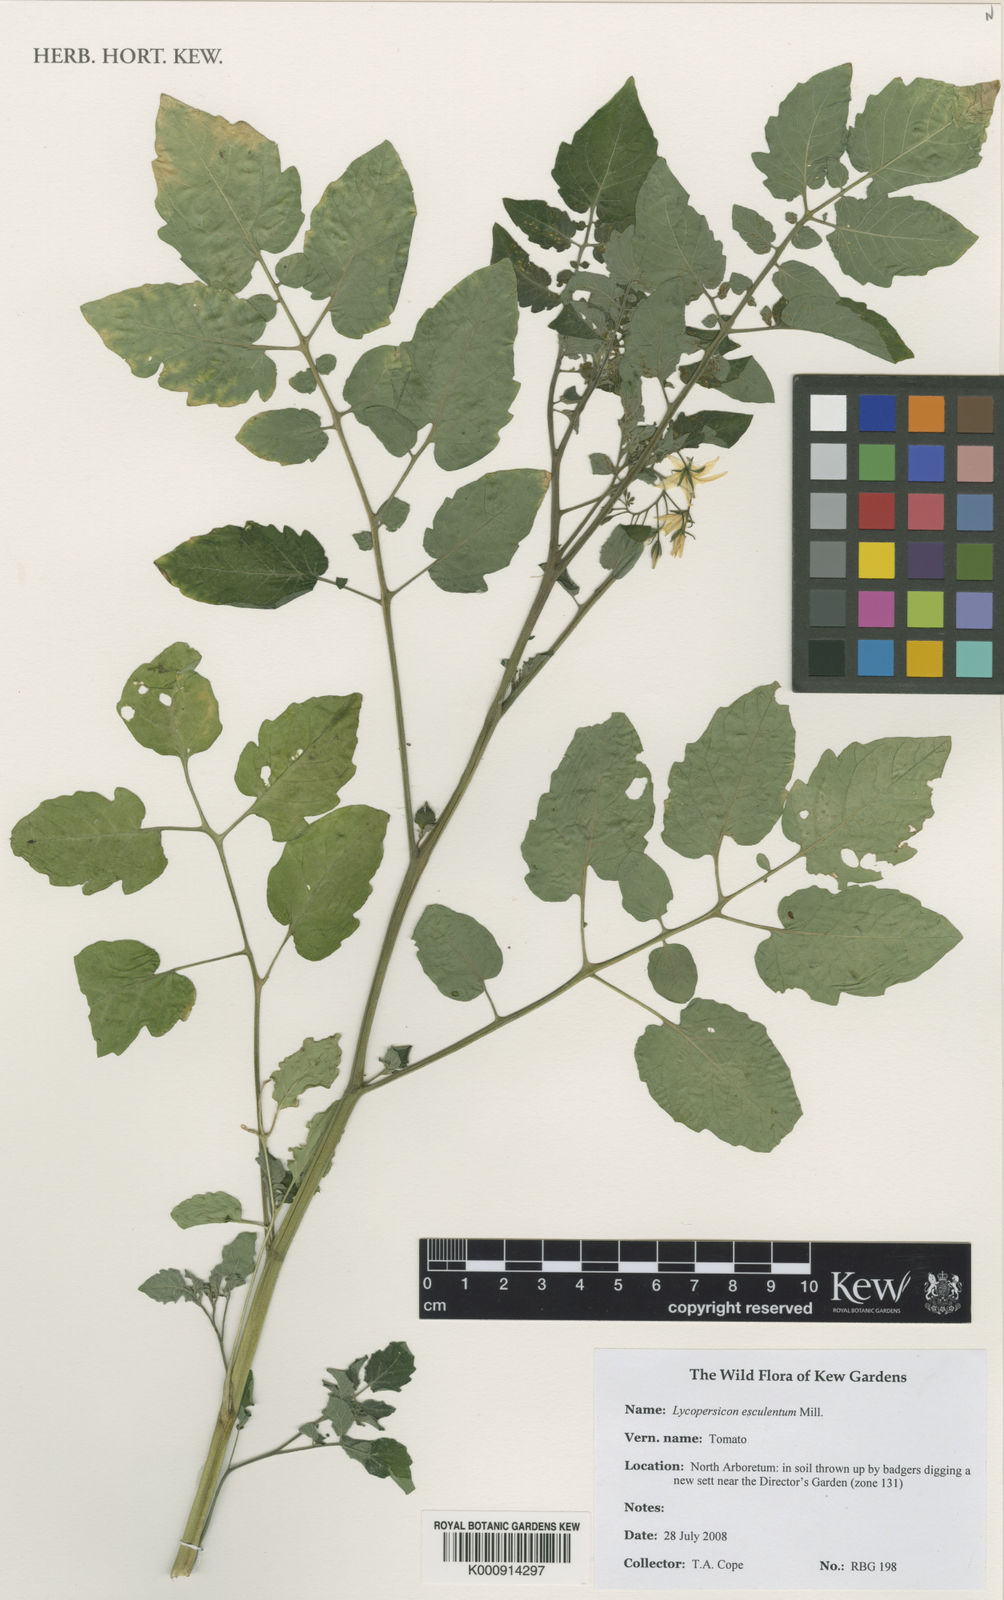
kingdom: Plantae
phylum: Tracheophyta
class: Magnoliopsida
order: Solanales
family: Solanaceae
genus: Solanum
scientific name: Solanum
